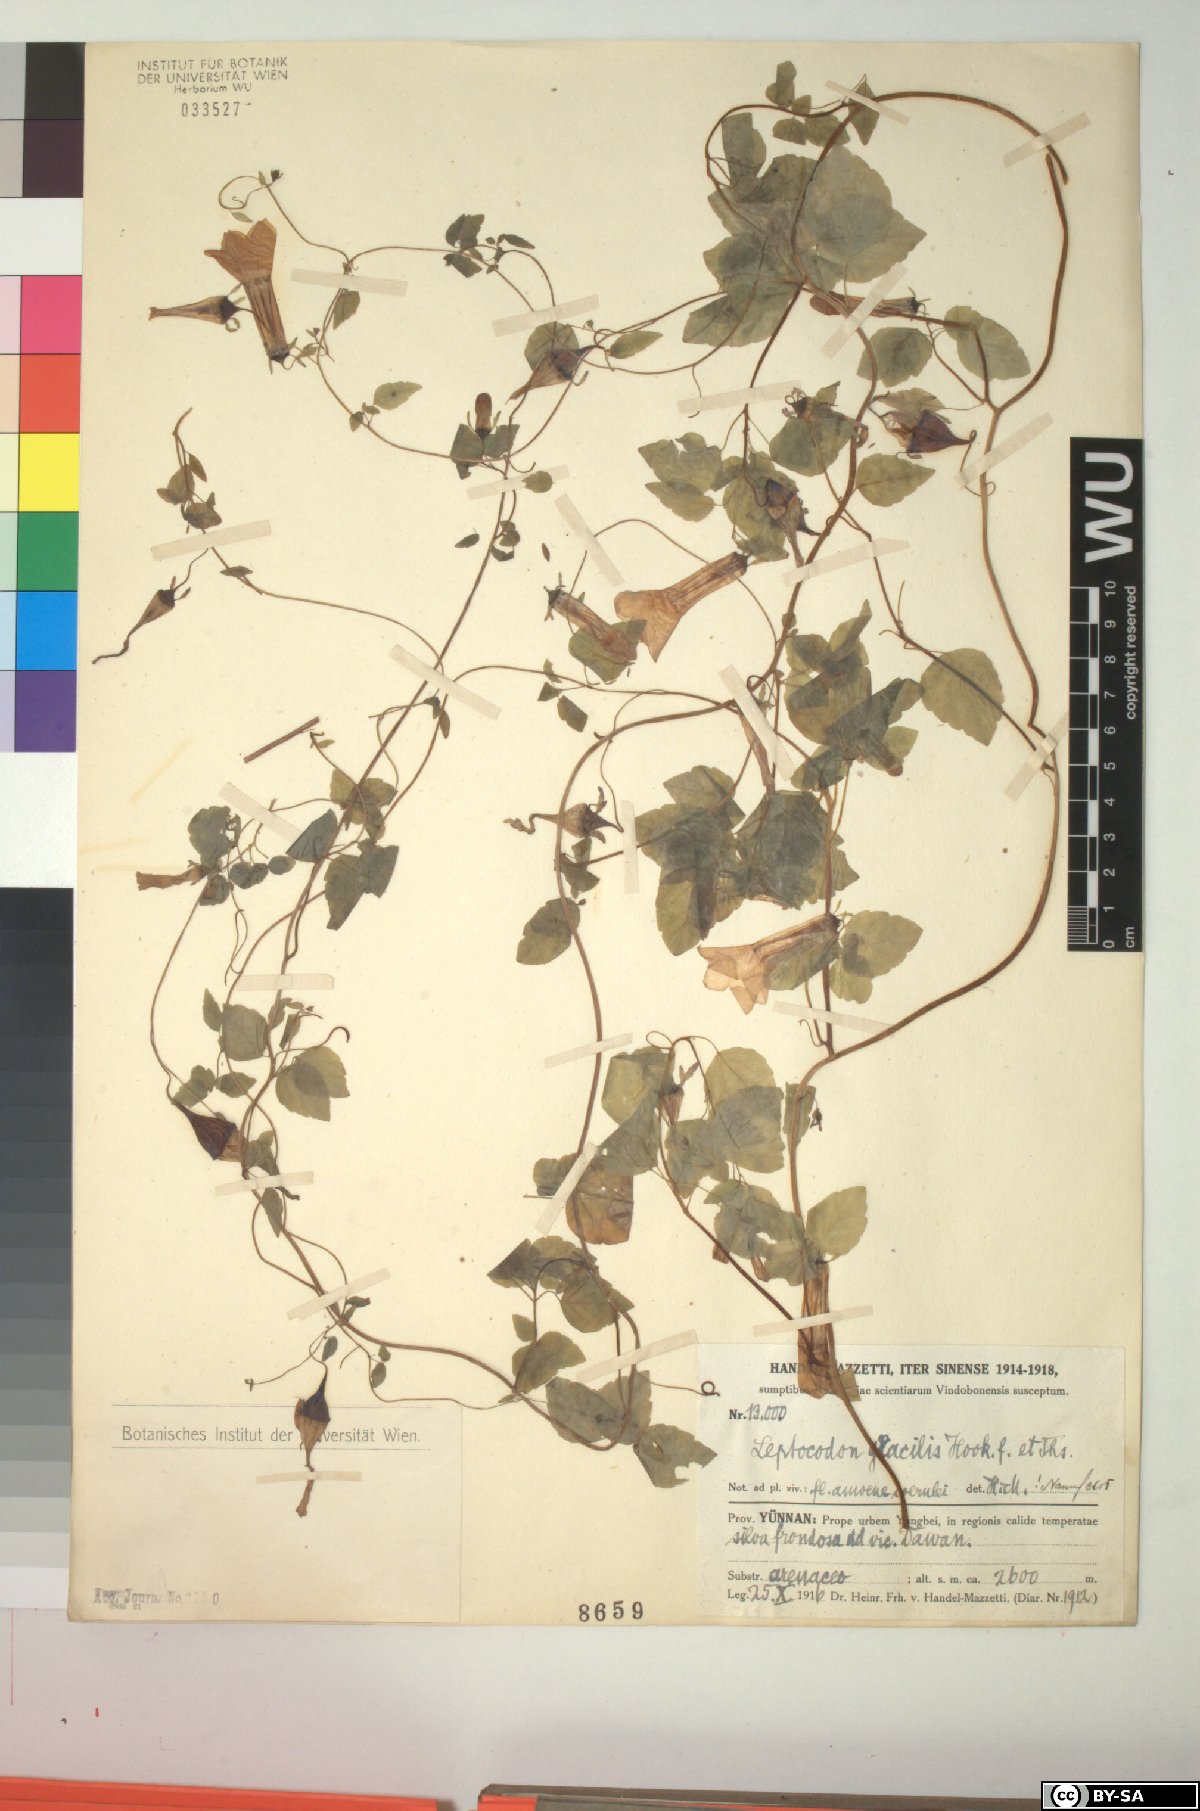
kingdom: Plantae
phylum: Tracheophyta
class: Magnoliopsida
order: Asterales
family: Campanulaceae
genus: Codonopsis
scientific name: Codonopsis gracilis
